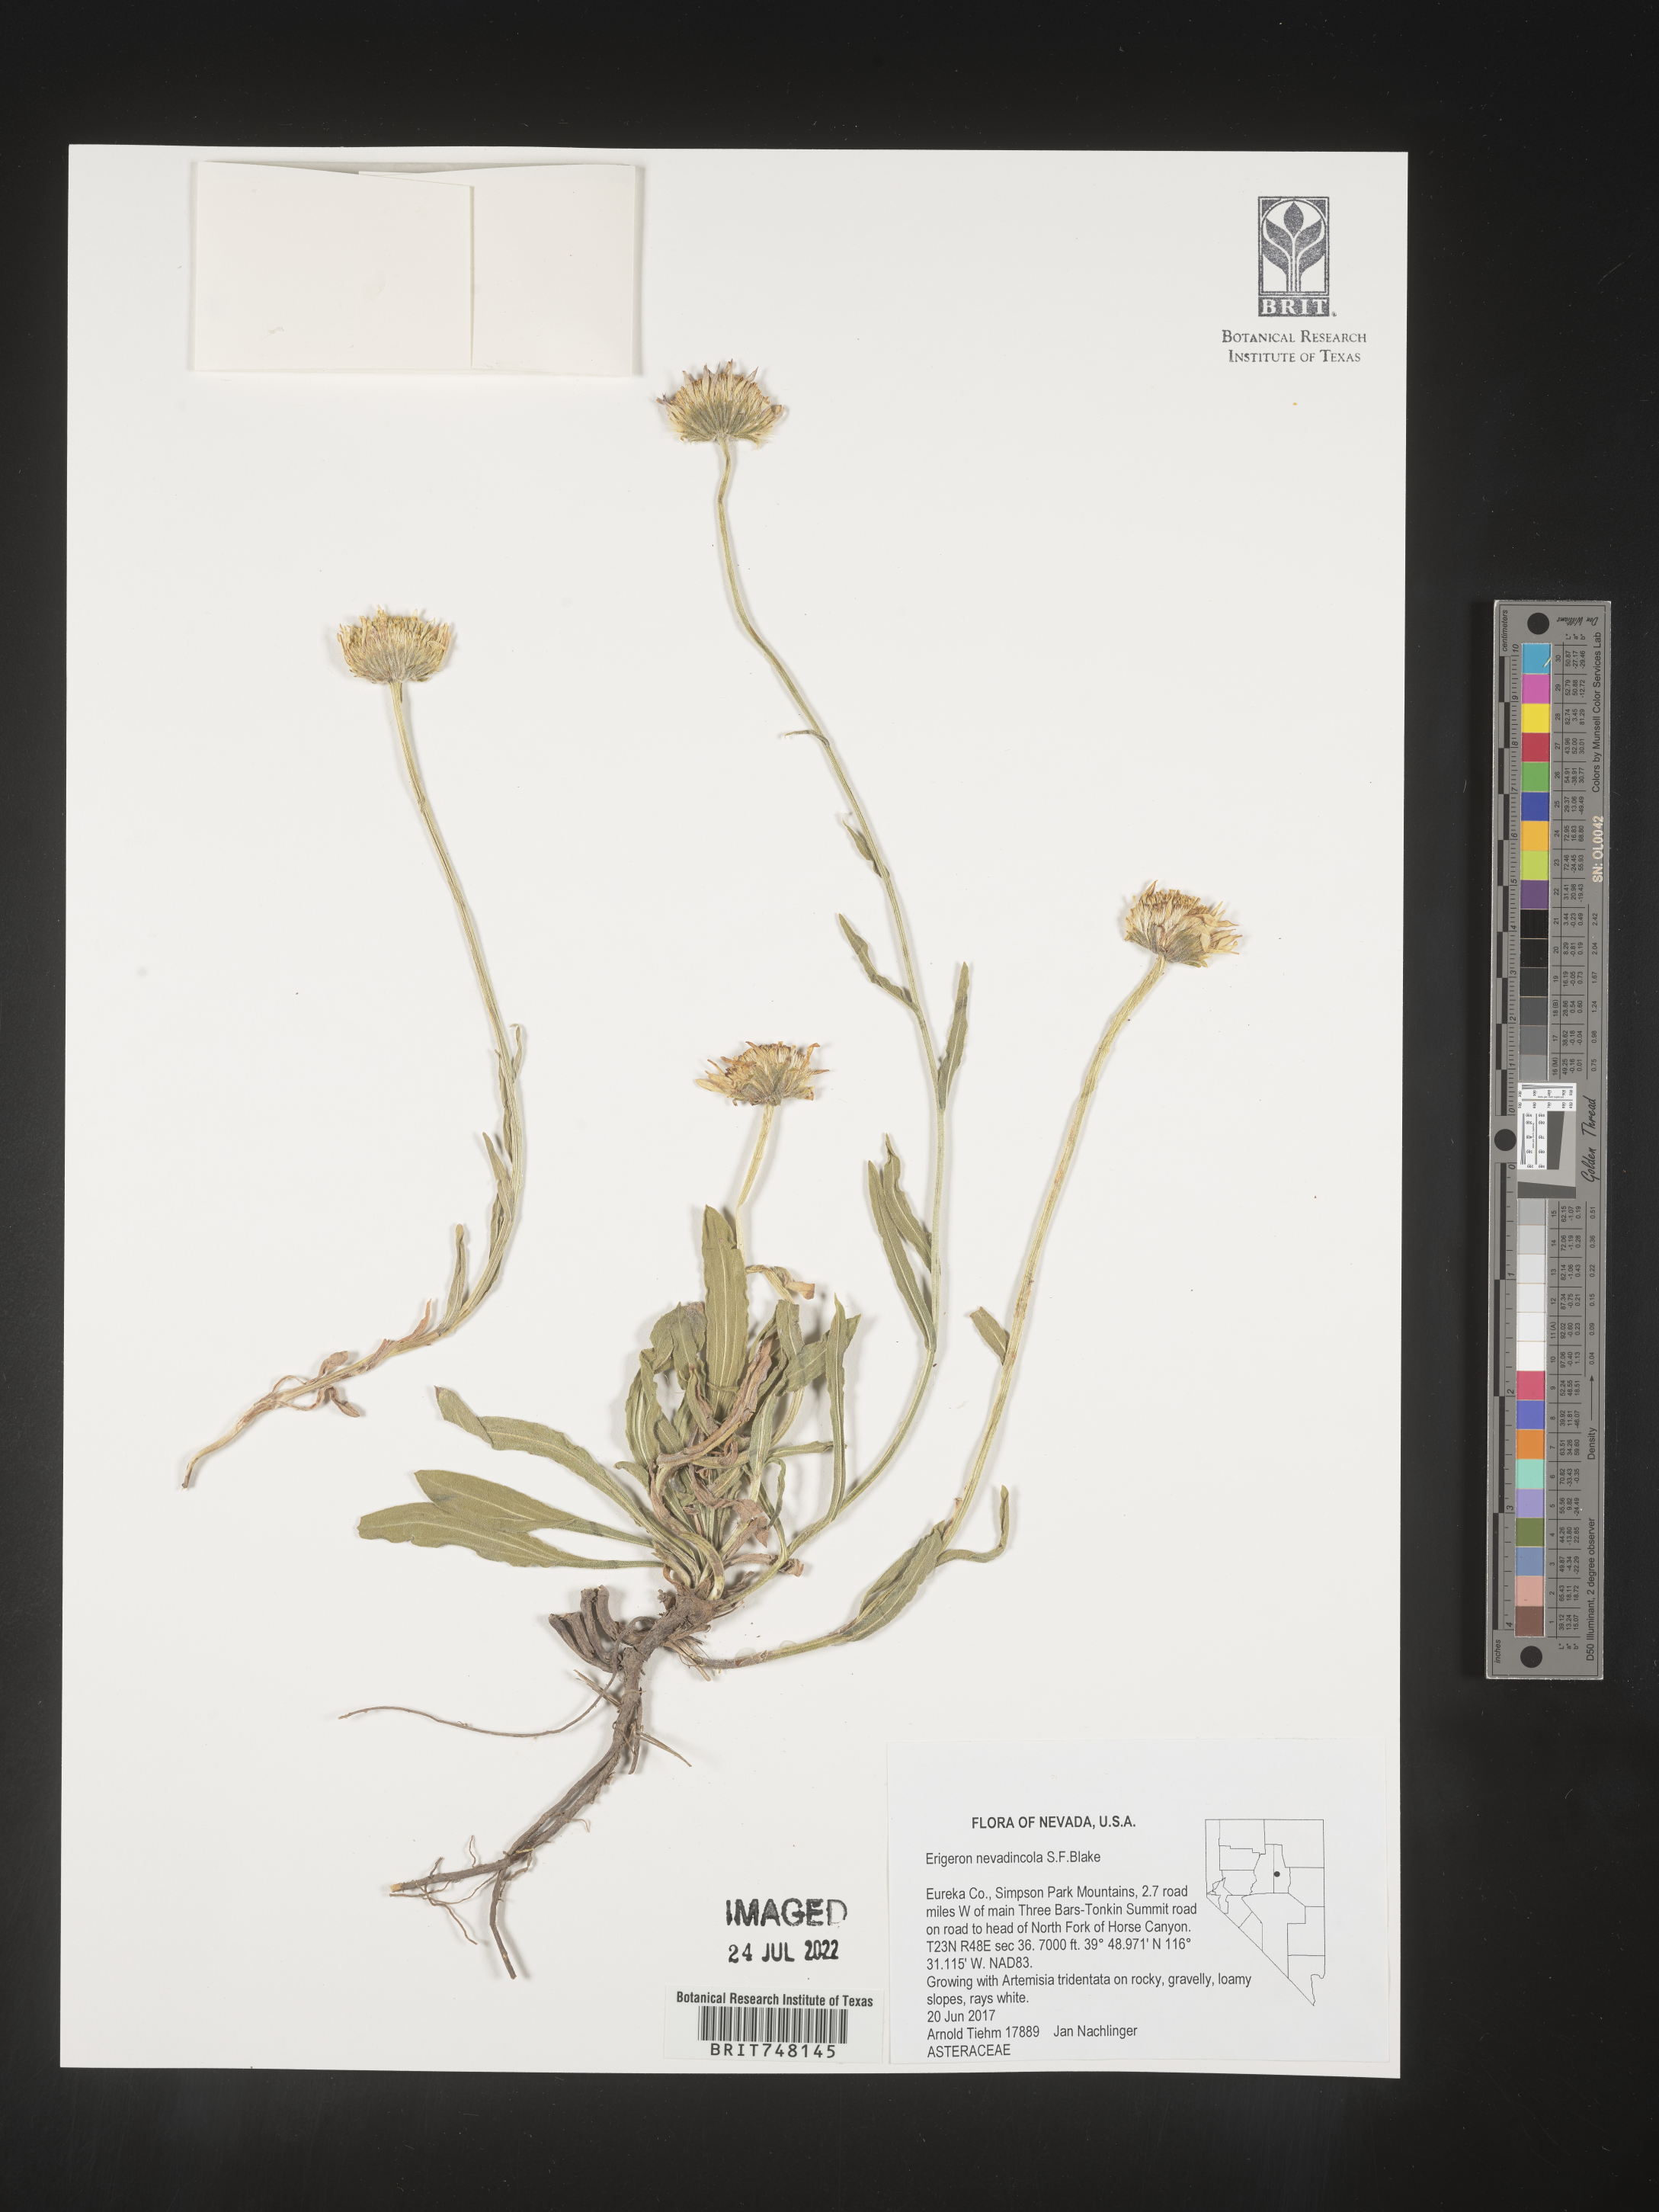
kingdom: Plantae
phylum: Tracheophyta
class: Magnoliopsida
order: Asterales
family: Asteraceae
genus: Erigeron
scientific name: Erigeron
